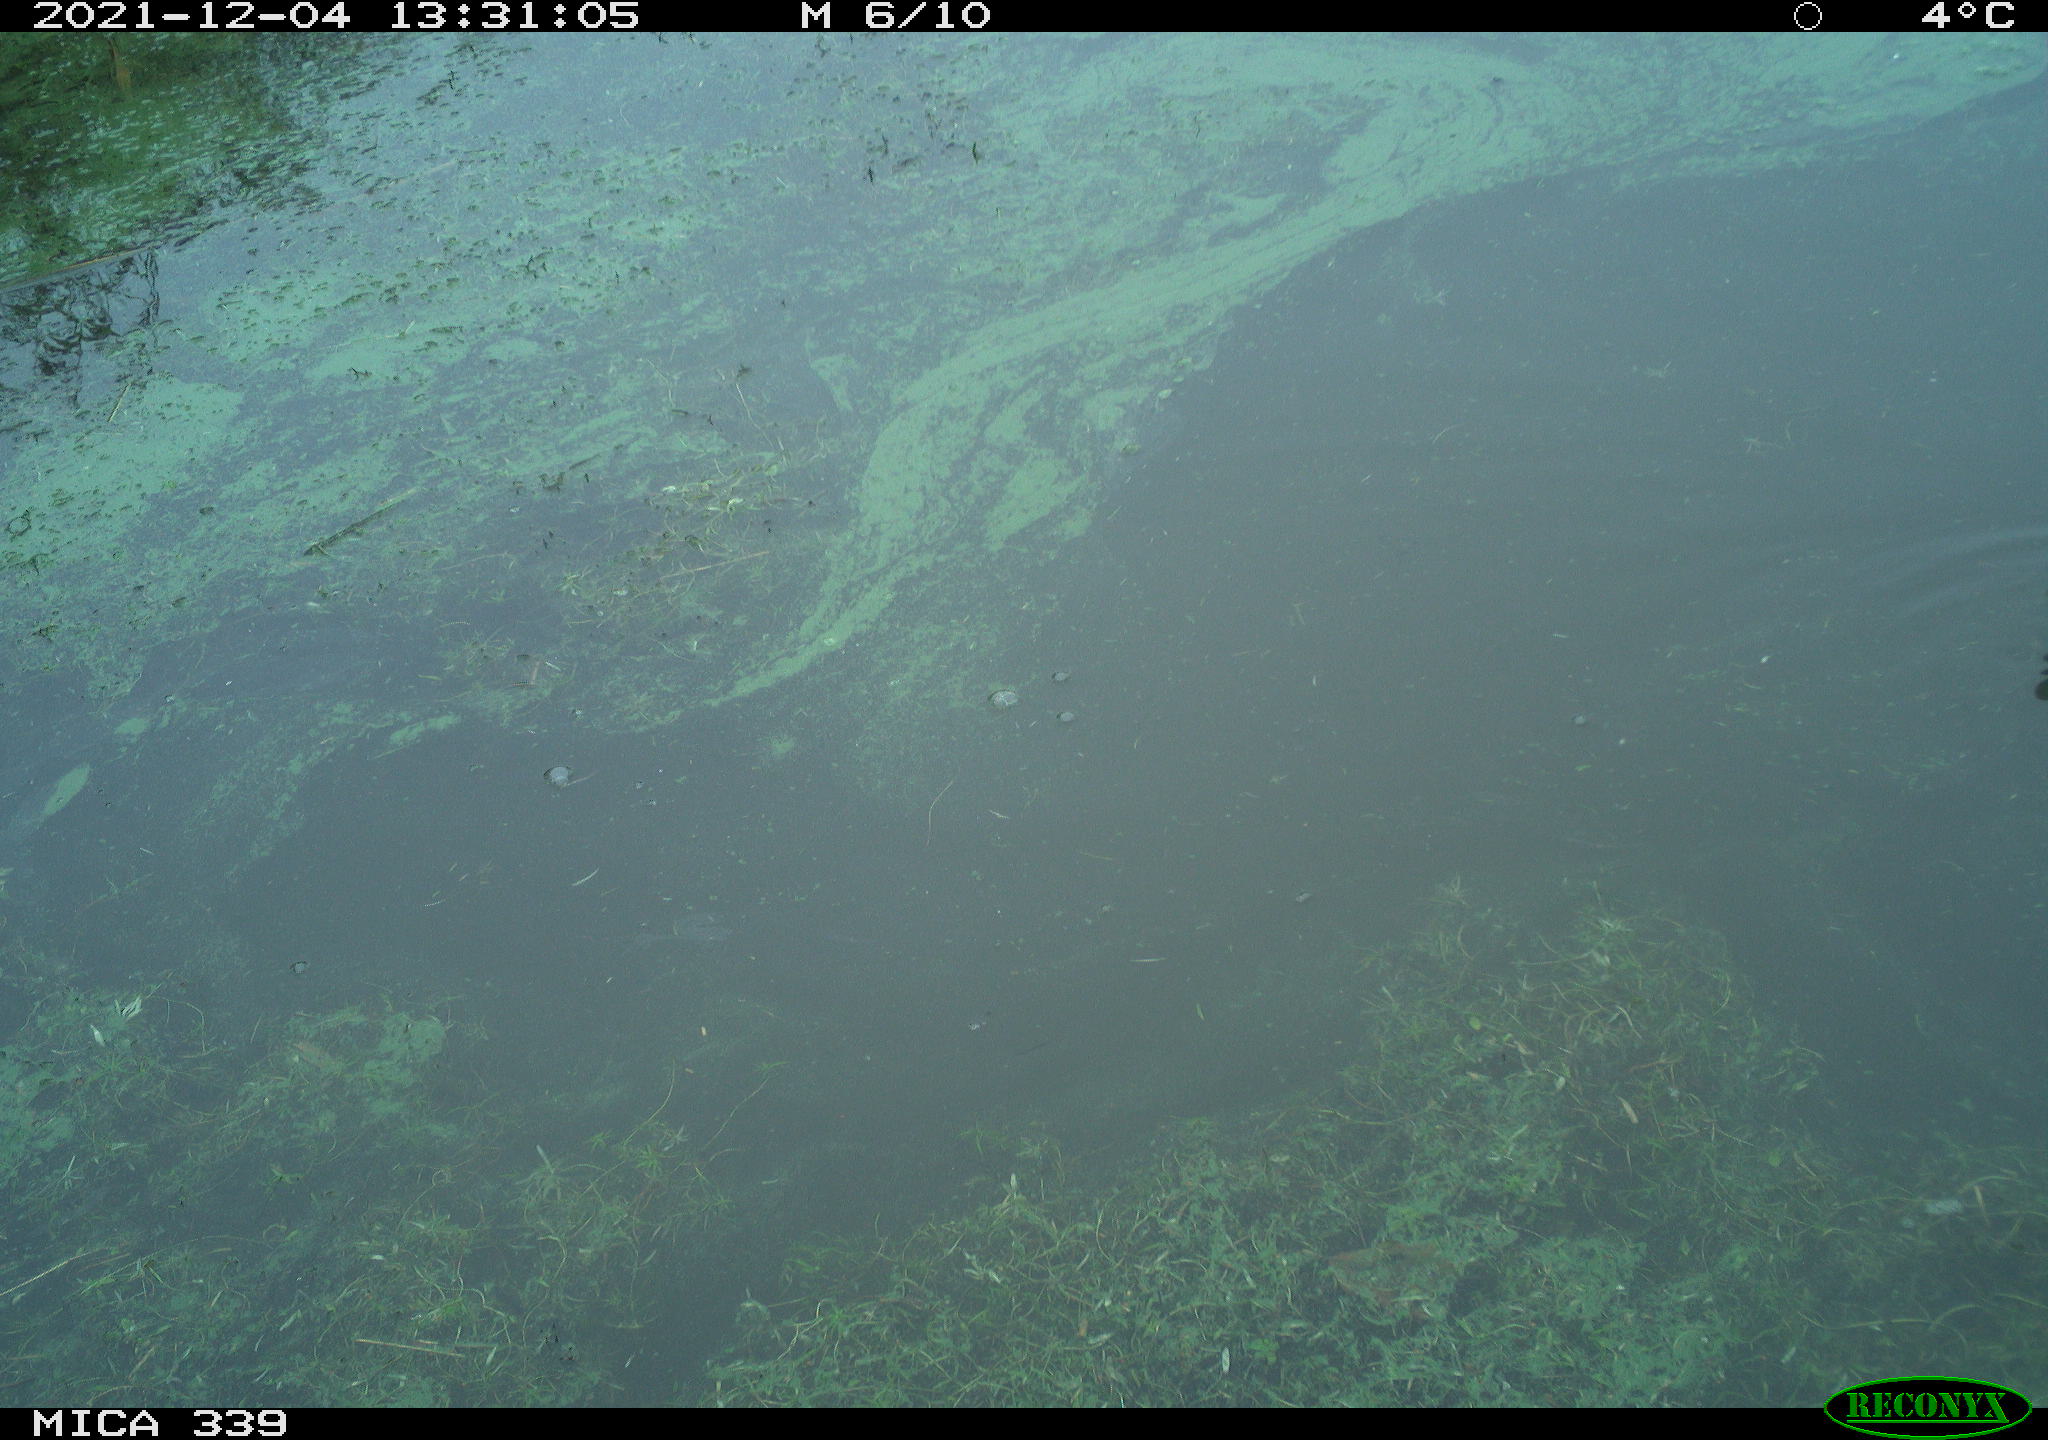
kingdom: Animalia
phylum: Chordata
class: Aves
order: Gruiformes
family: Rallidae
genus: Gallinula
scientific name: Gallinula chloropus
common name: Common moorhen
